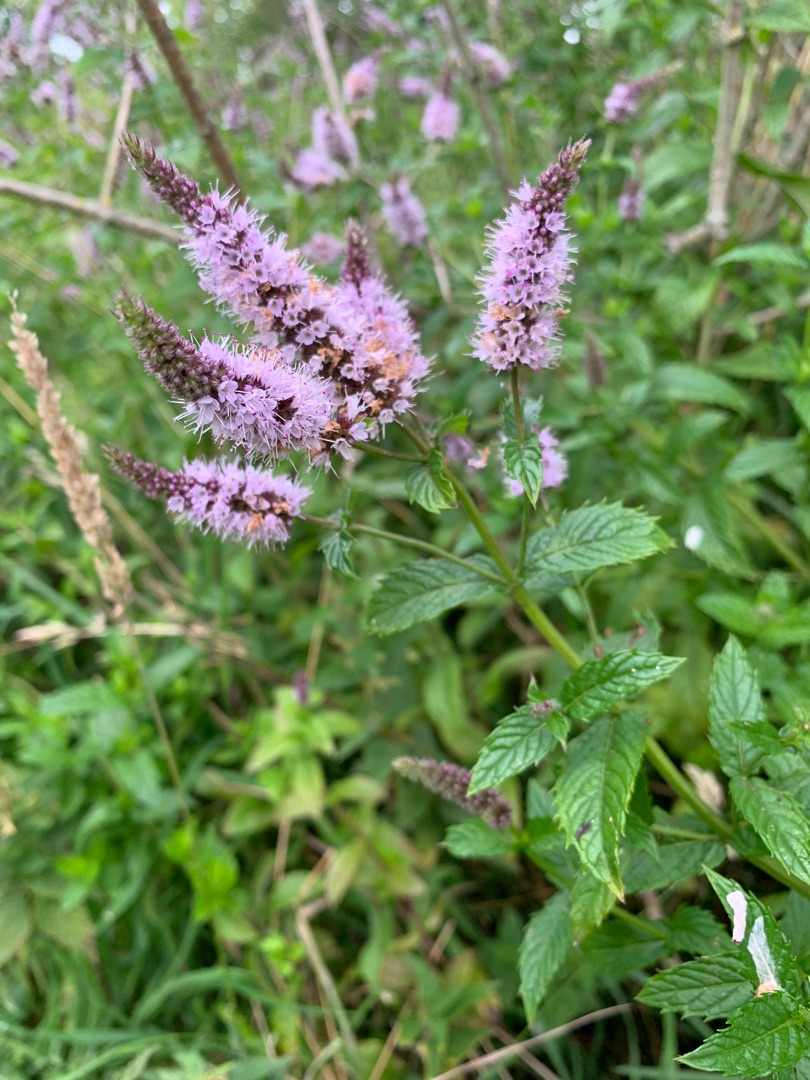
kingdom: Plantae
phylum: Tracheophyta
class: Magnoliopsida
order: Lamiales
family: Lamiaceae
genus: Mentha
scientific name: Mentha spicata
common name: Grøn mynte
